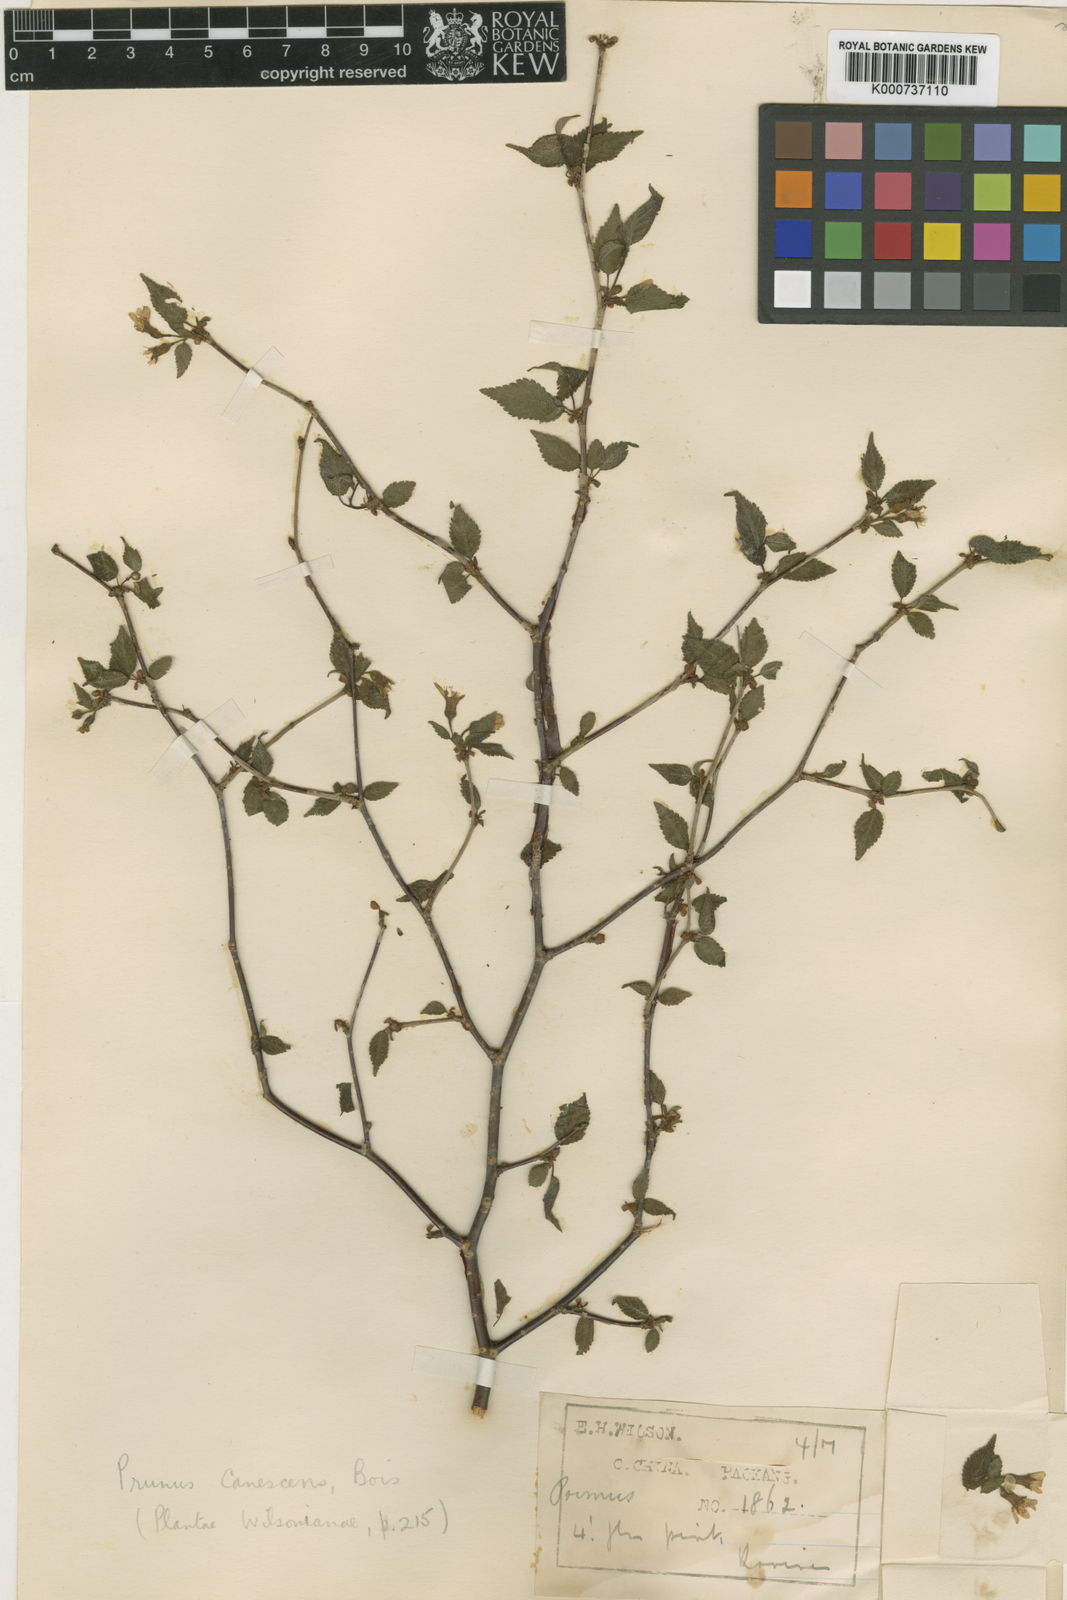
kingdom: Plantae
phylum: Tracheophyta
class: Magnoliopsida
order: Rosales
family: Rosaceae
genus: Prunus
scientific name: Prunus canescens
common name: Gray-leaf cherry
